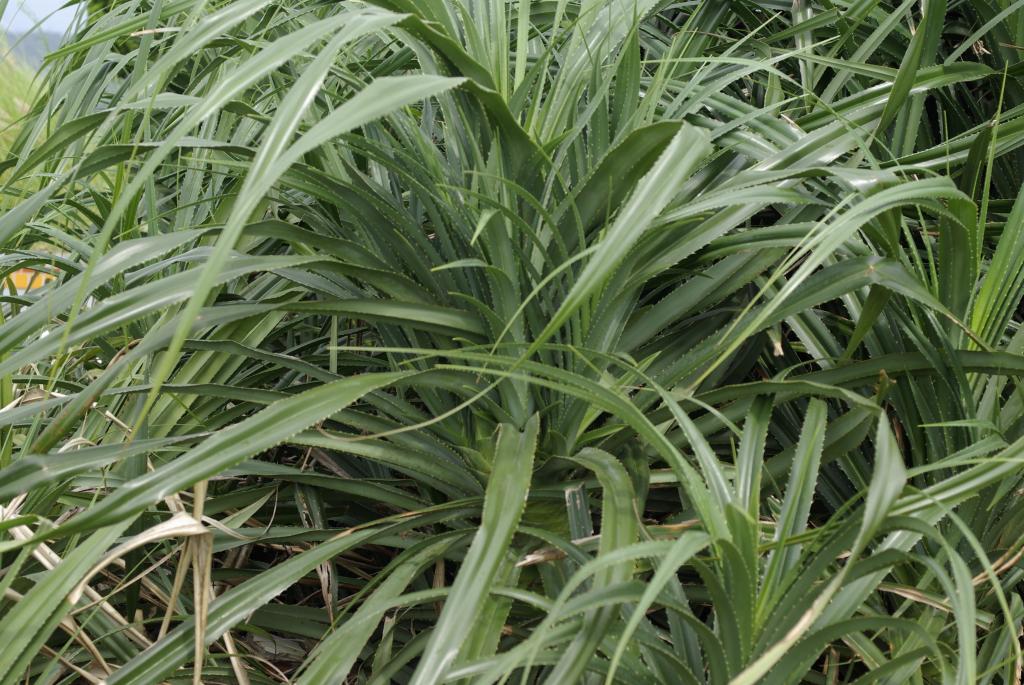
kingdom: Plantae
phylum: Tracheophyta
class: Liliopsida
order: Pandanales
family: Pandanaceae
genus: Pandanus
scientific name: Pandanus odorifer
